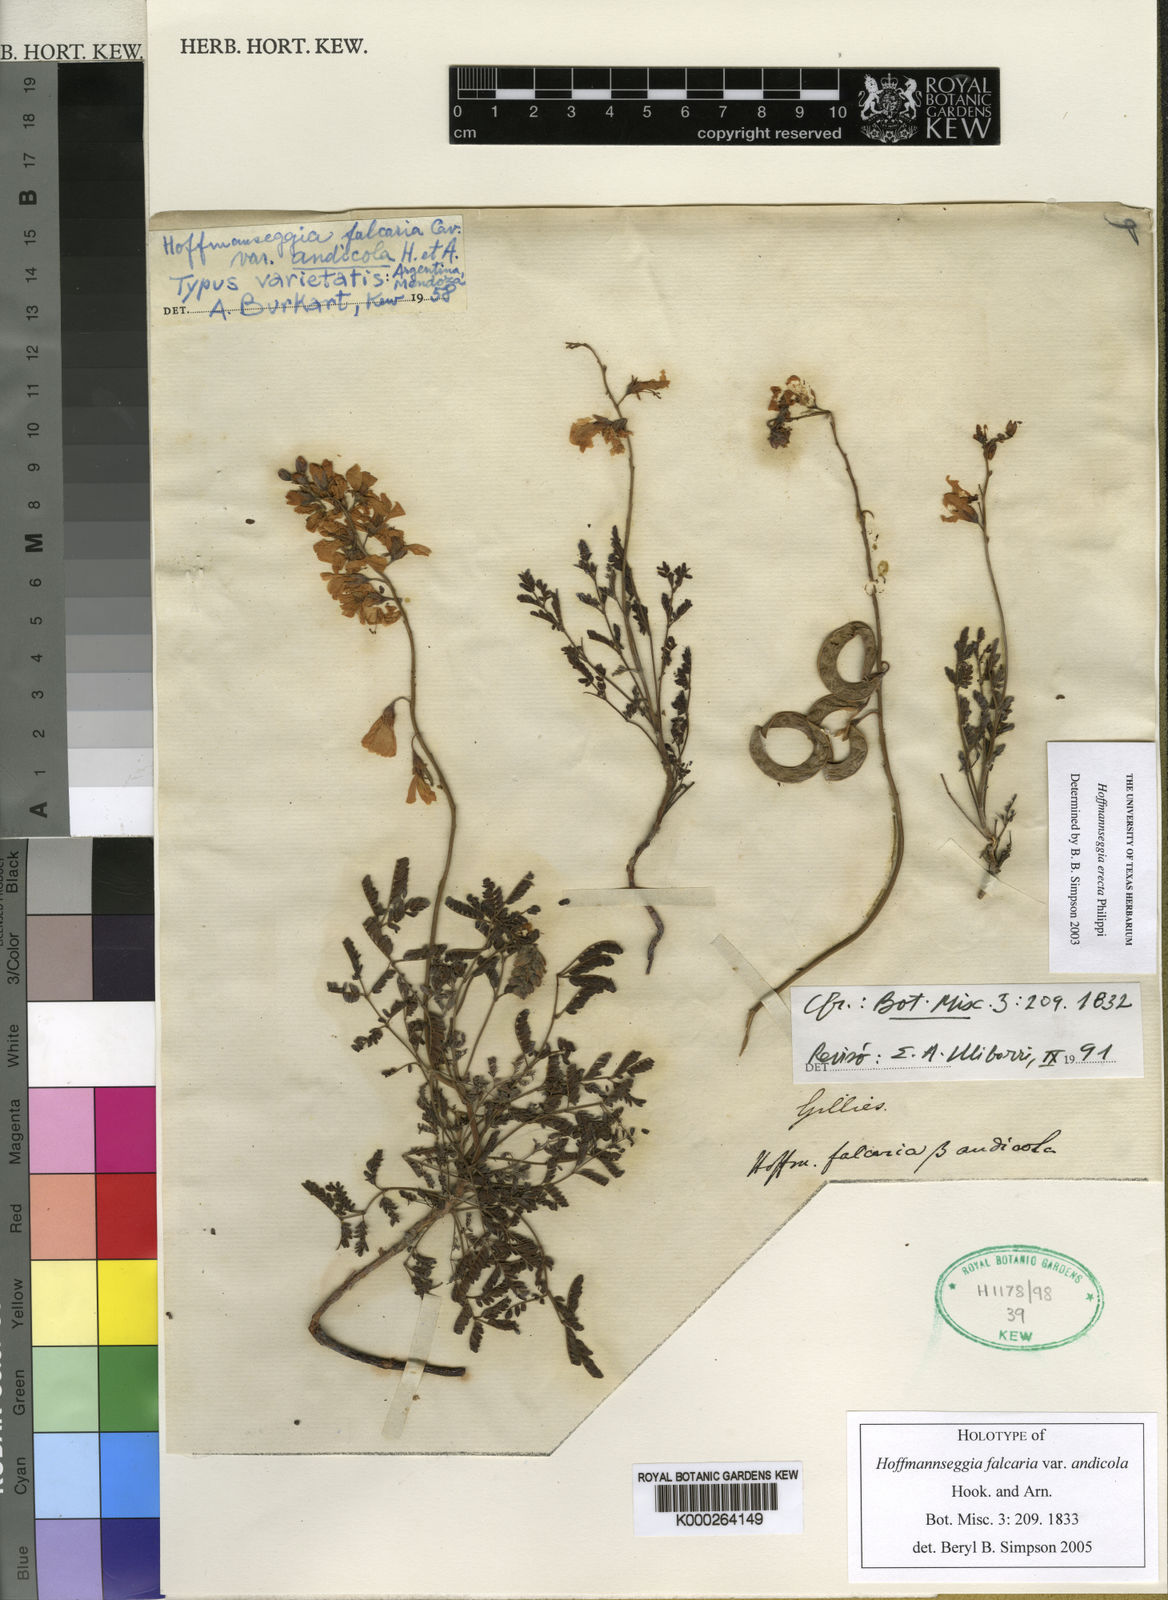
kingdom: Plantae
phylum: Tracheophyta
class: Magnoliopsida
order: Fabales
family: Fabaceae
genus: Hoffmannseggia
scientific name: Hoffmannseggia erecta
